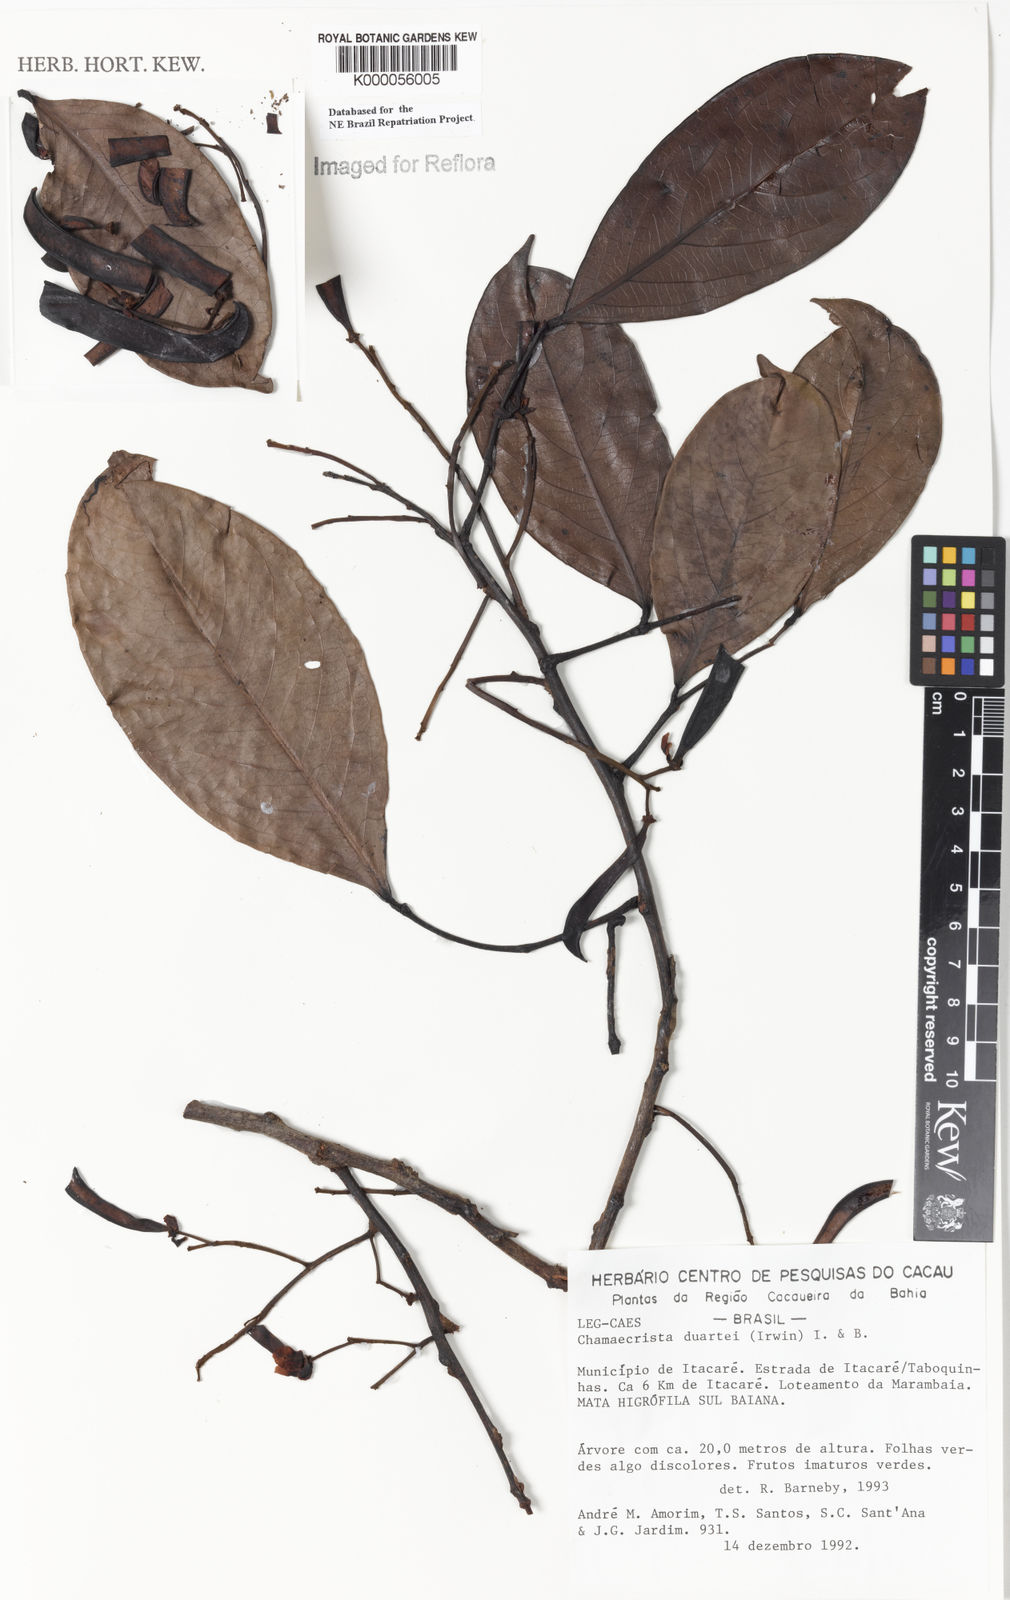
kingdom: Plantae
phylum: Tracheophyta
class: Magnoliopsida
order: Fabales
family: Fabaceae
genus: Chamaecrista
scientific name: Chamaecrista duartei
